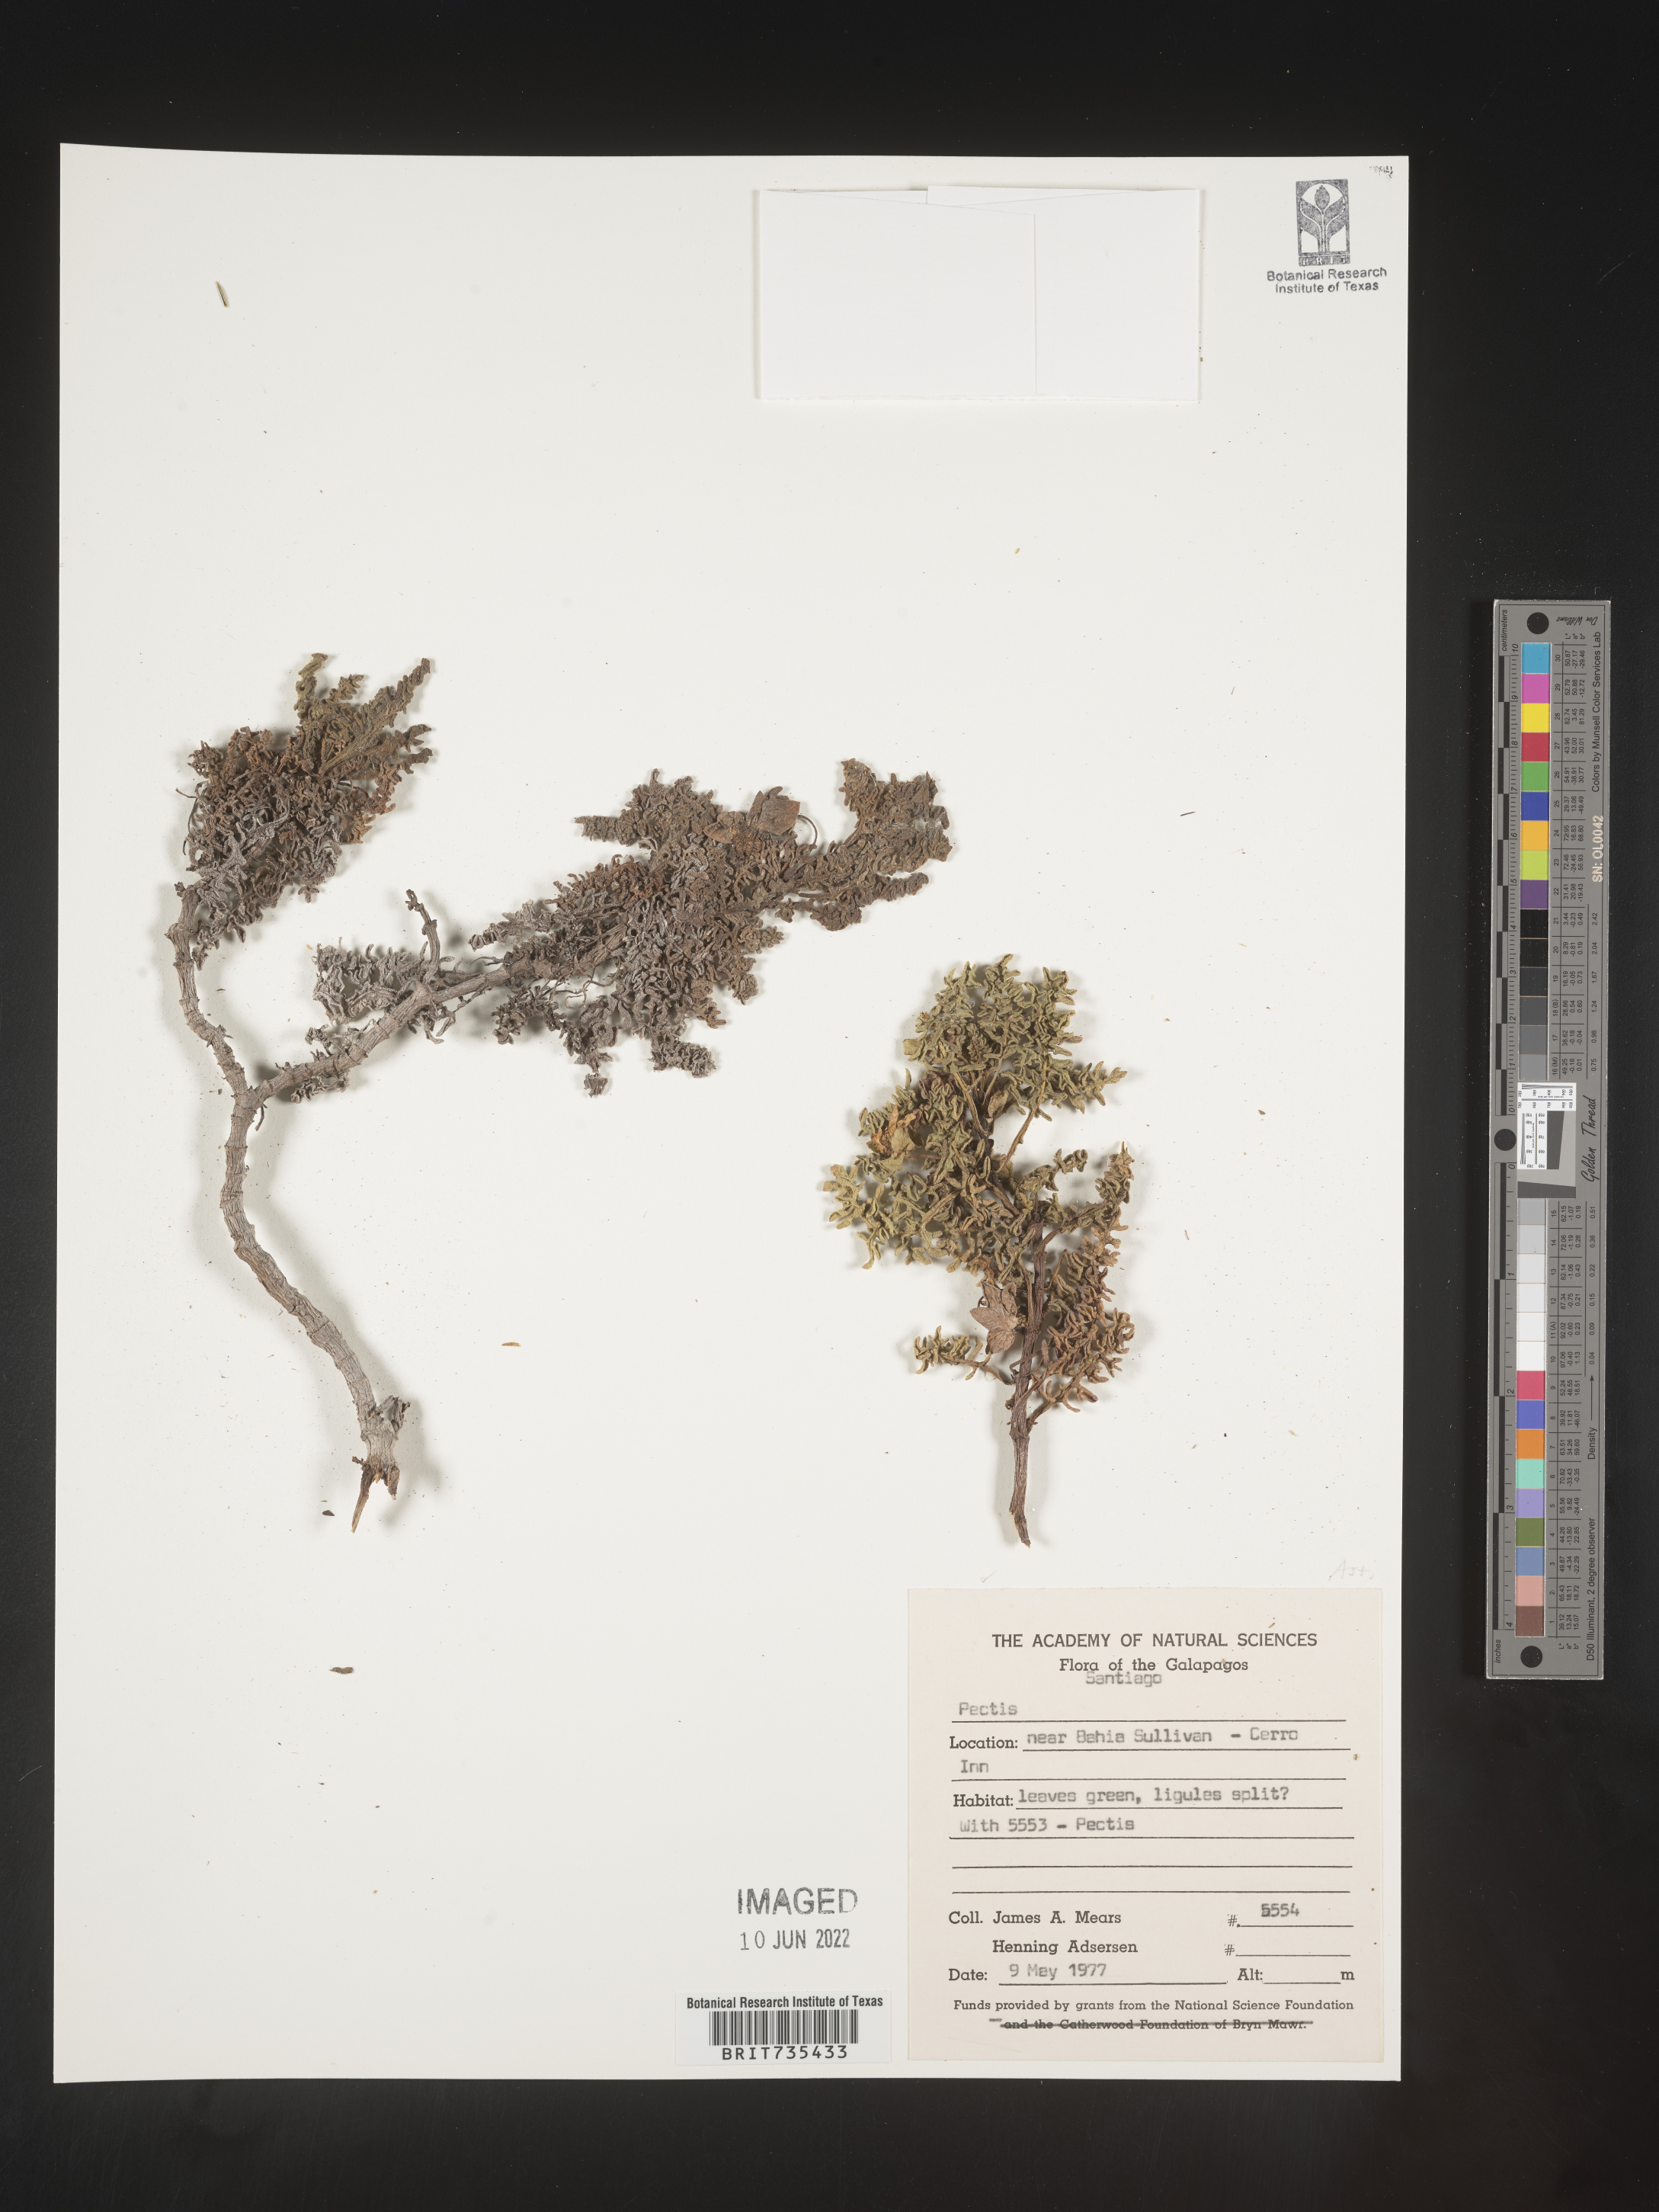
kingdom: Plantae
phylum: Tracheophyta
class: Magnoliopsida
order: Asterales
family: Asteraceae
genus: Pectis
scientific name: Pectis
